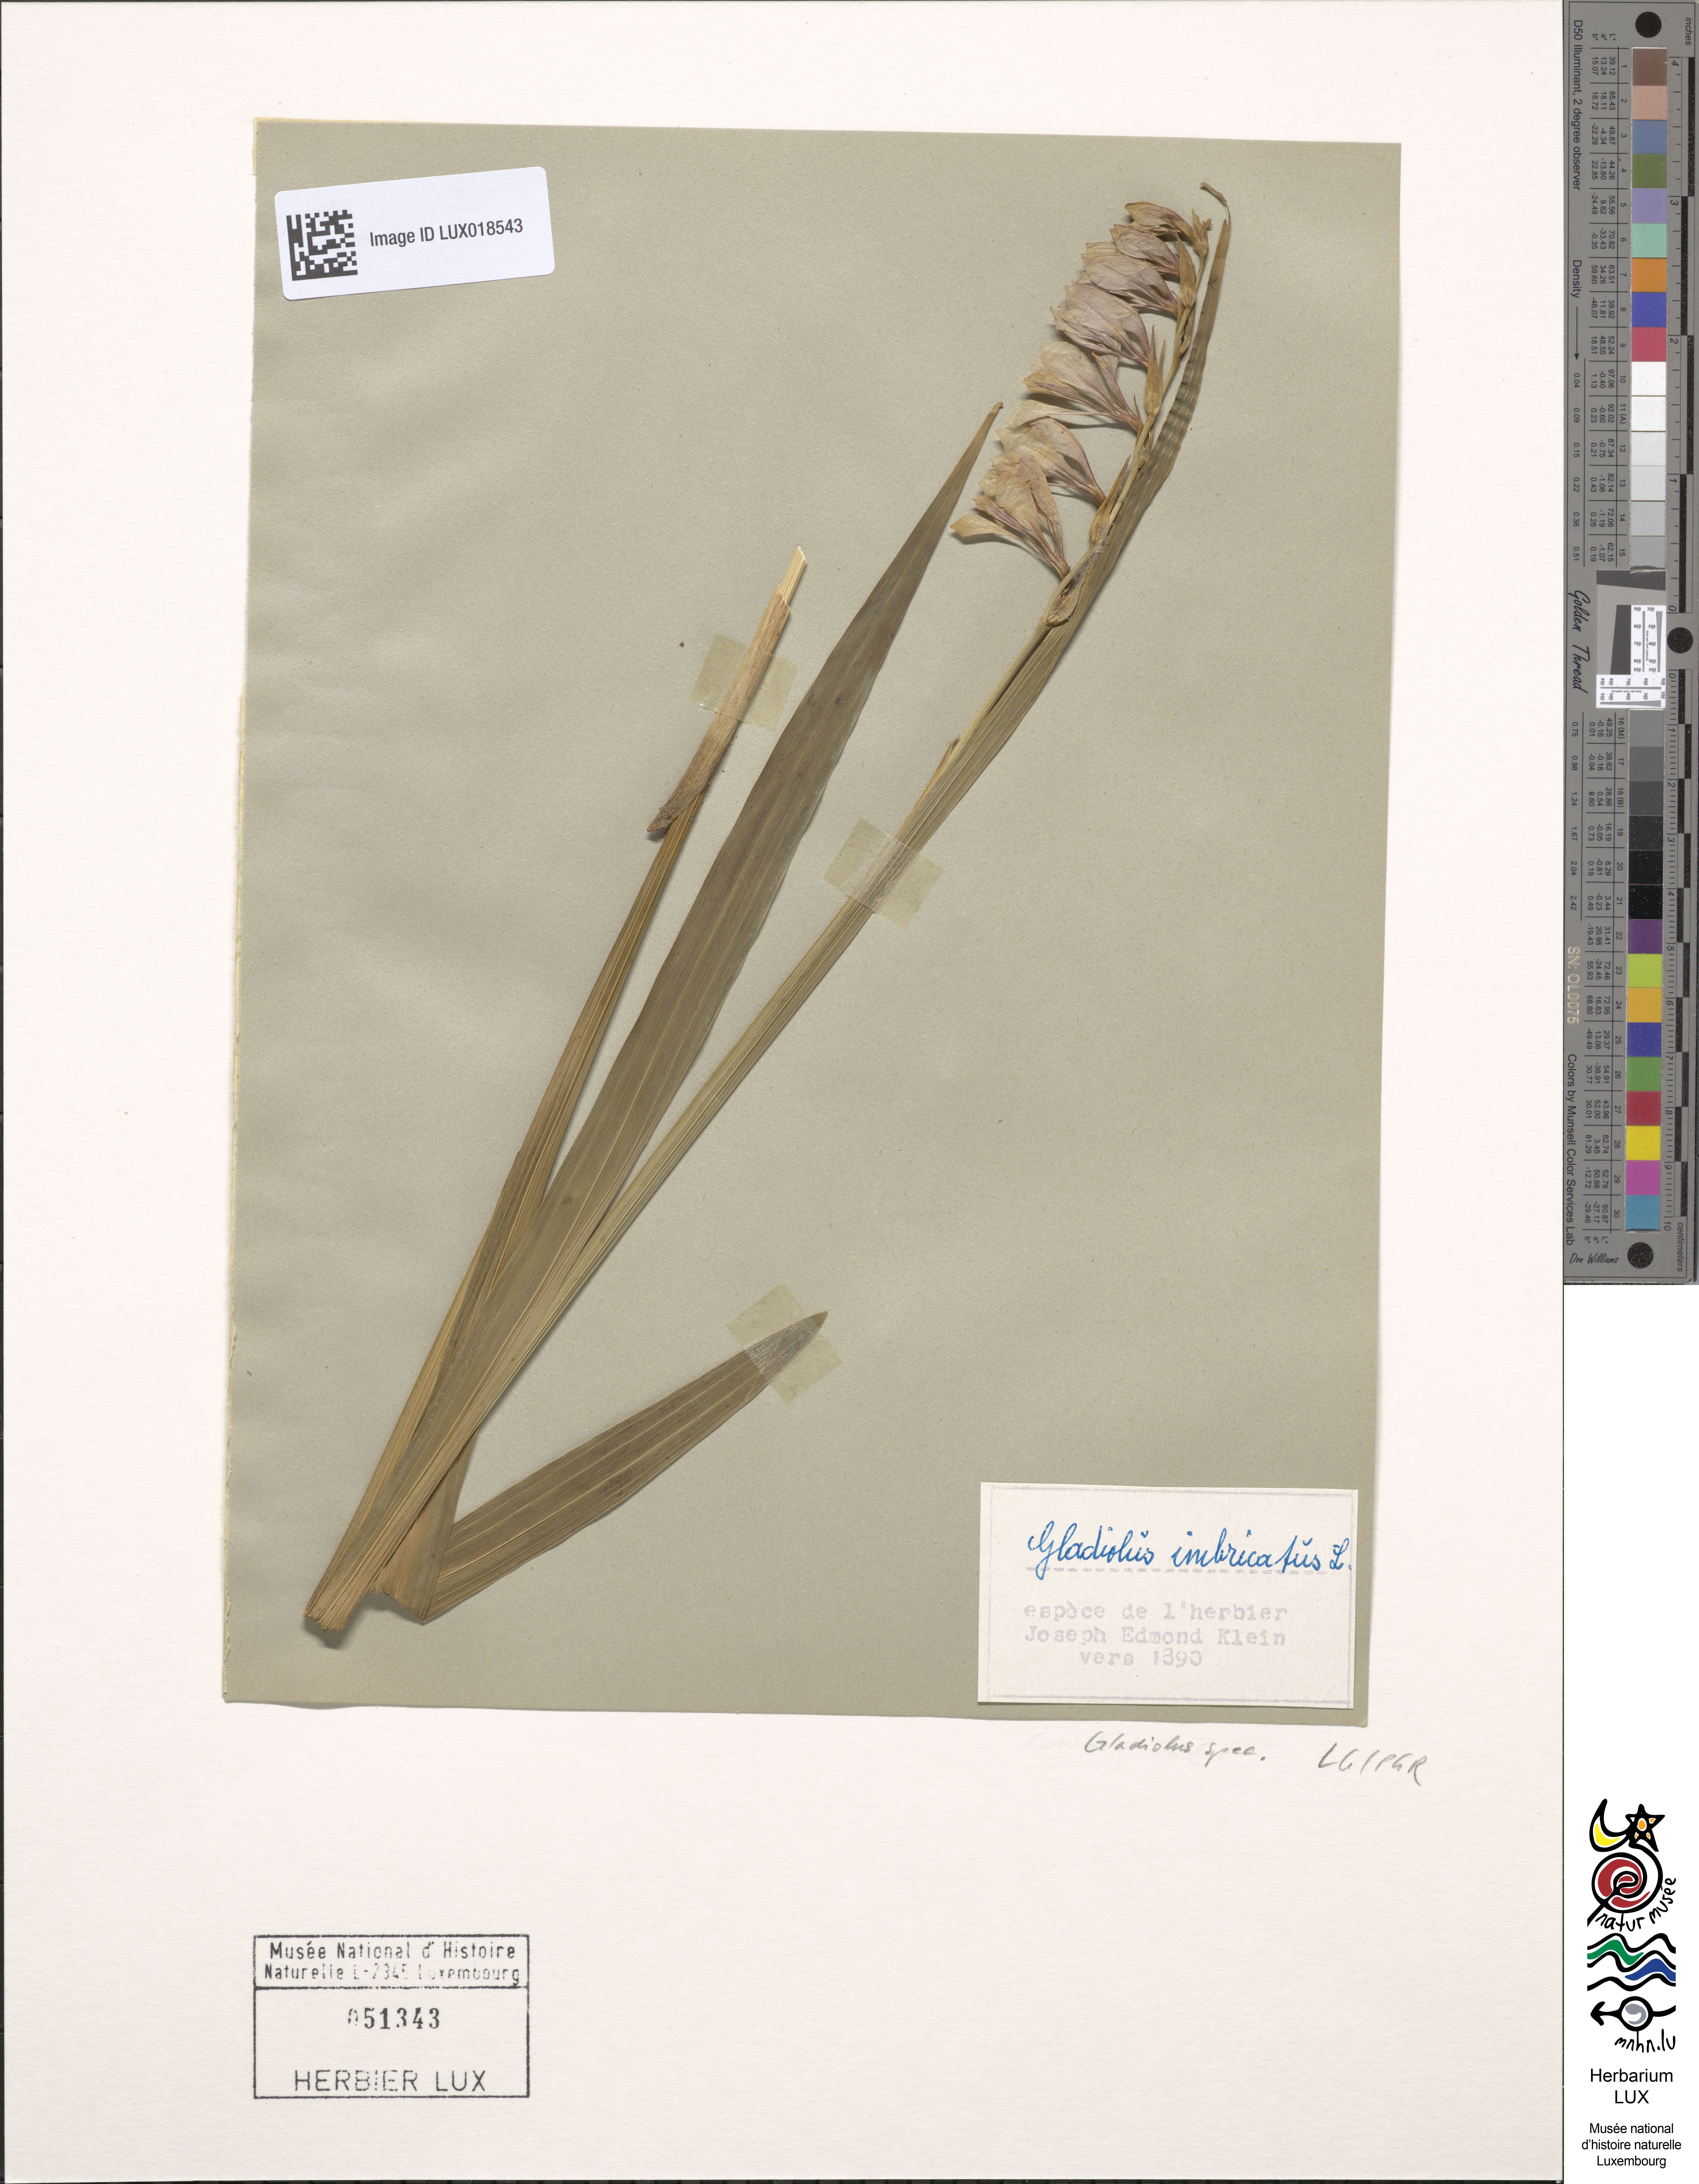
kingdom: Plantae
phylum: Tracheophyta
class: Liliopsida
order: Asparagales
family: Iridaceae
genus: Gladiolus
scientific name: Gladiolus
